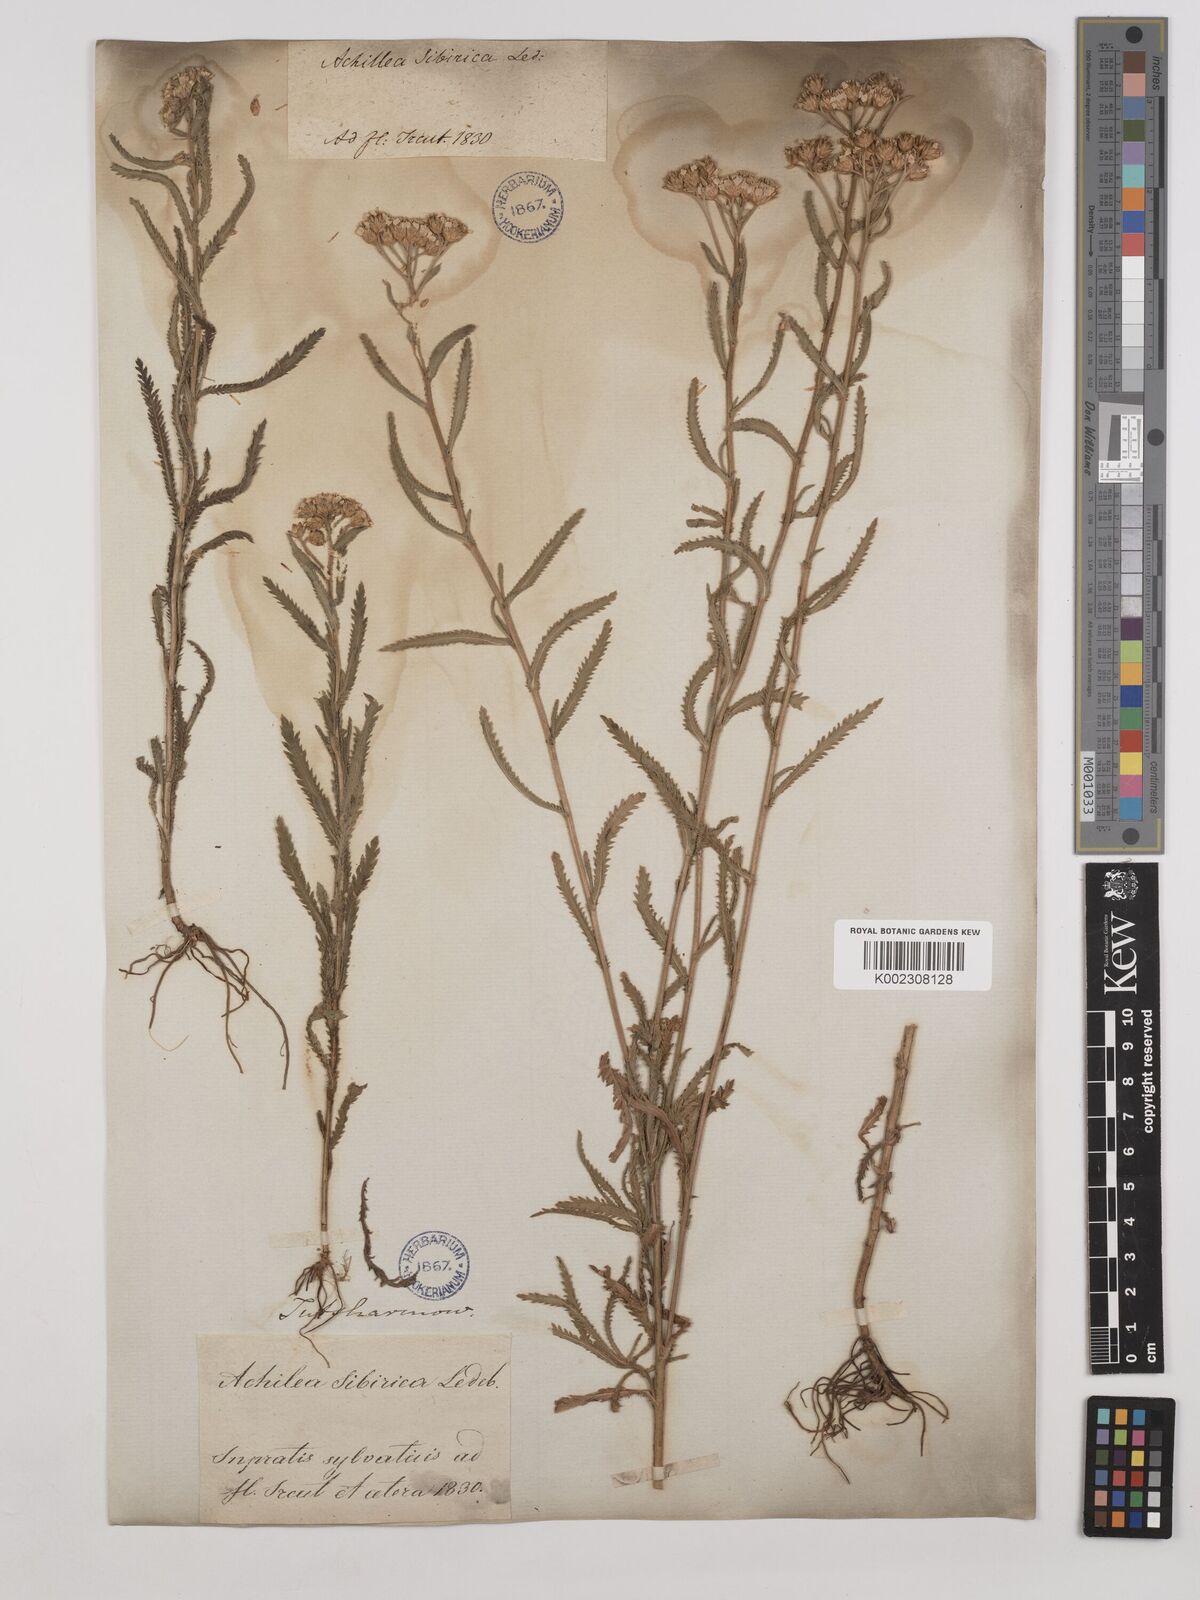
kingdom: Plantae
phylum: Tracheophyta
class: Magnoliopsida
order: Asterales
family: Asteraceae
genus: Achillea
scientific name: Achillea alpina
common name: Siberian yarrow
